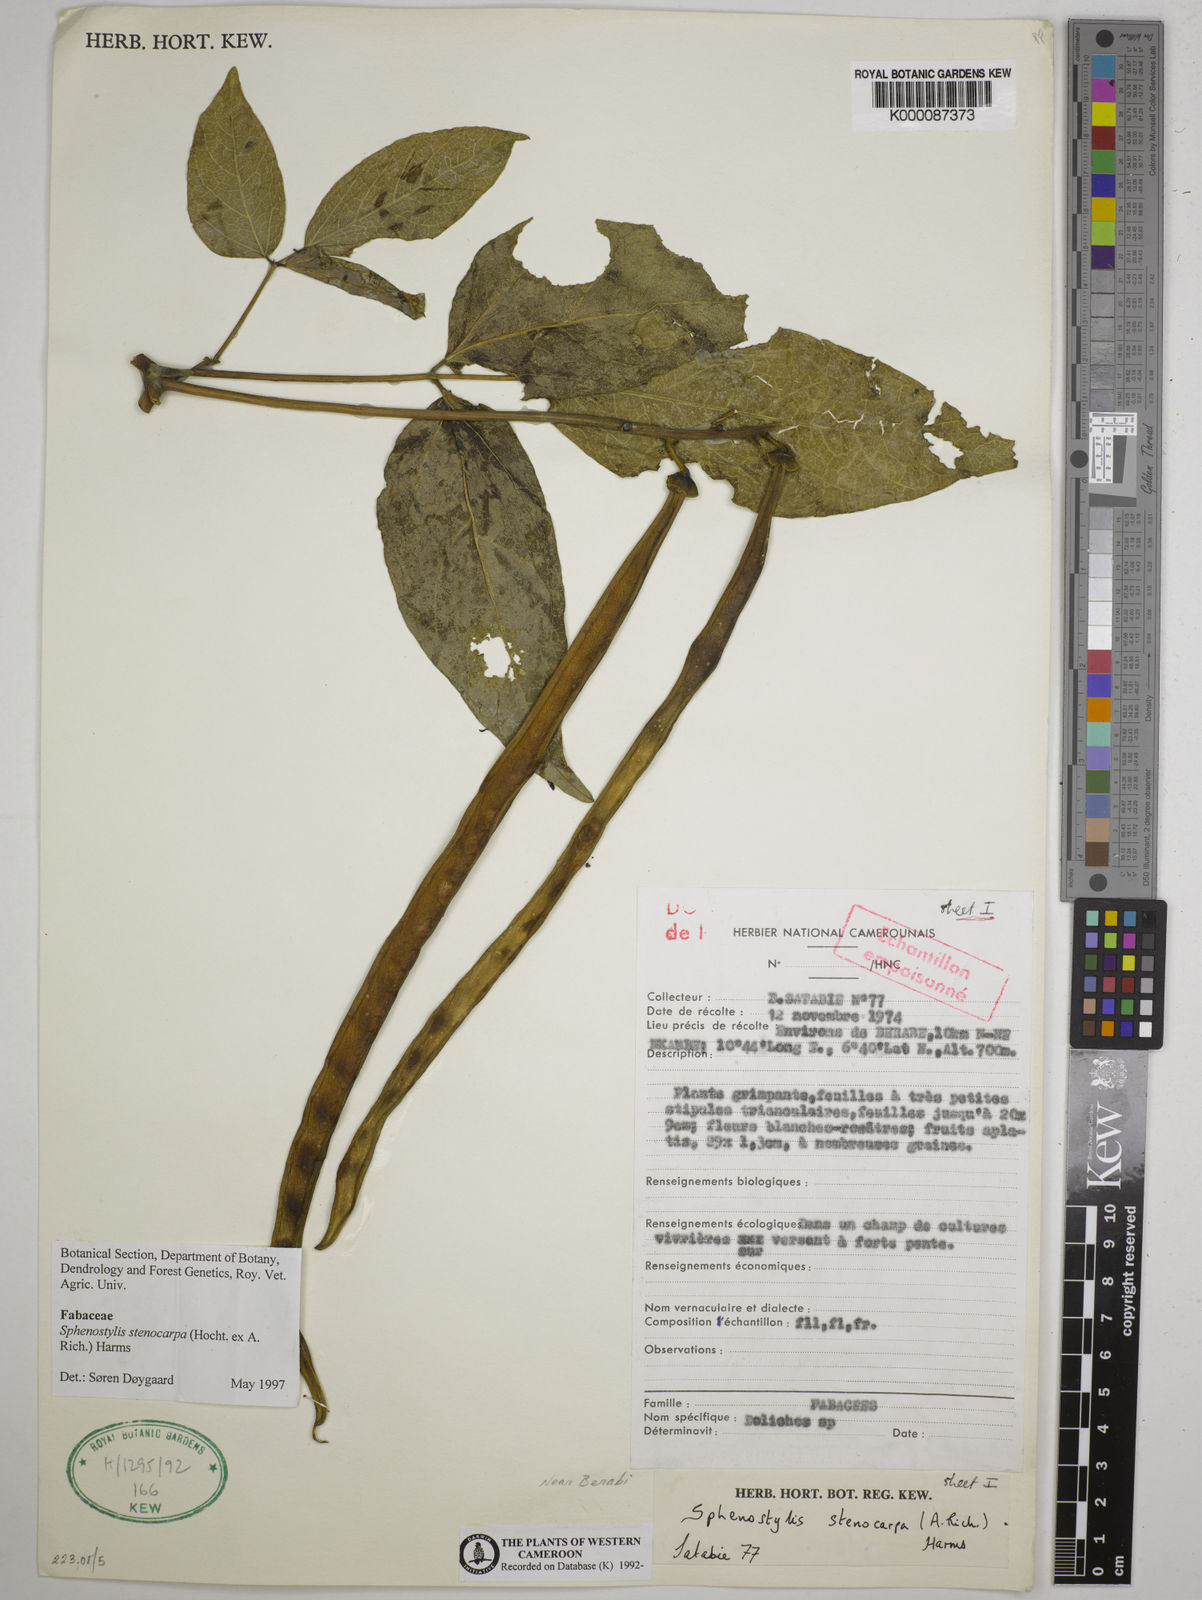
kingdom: Plantae
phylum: Tracheophyta
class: Magnoliopsida
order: Fabales
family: Fabaceae
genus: Sphenostylis
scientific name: Sphenostylis stenocarpa
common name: Yam-pea
